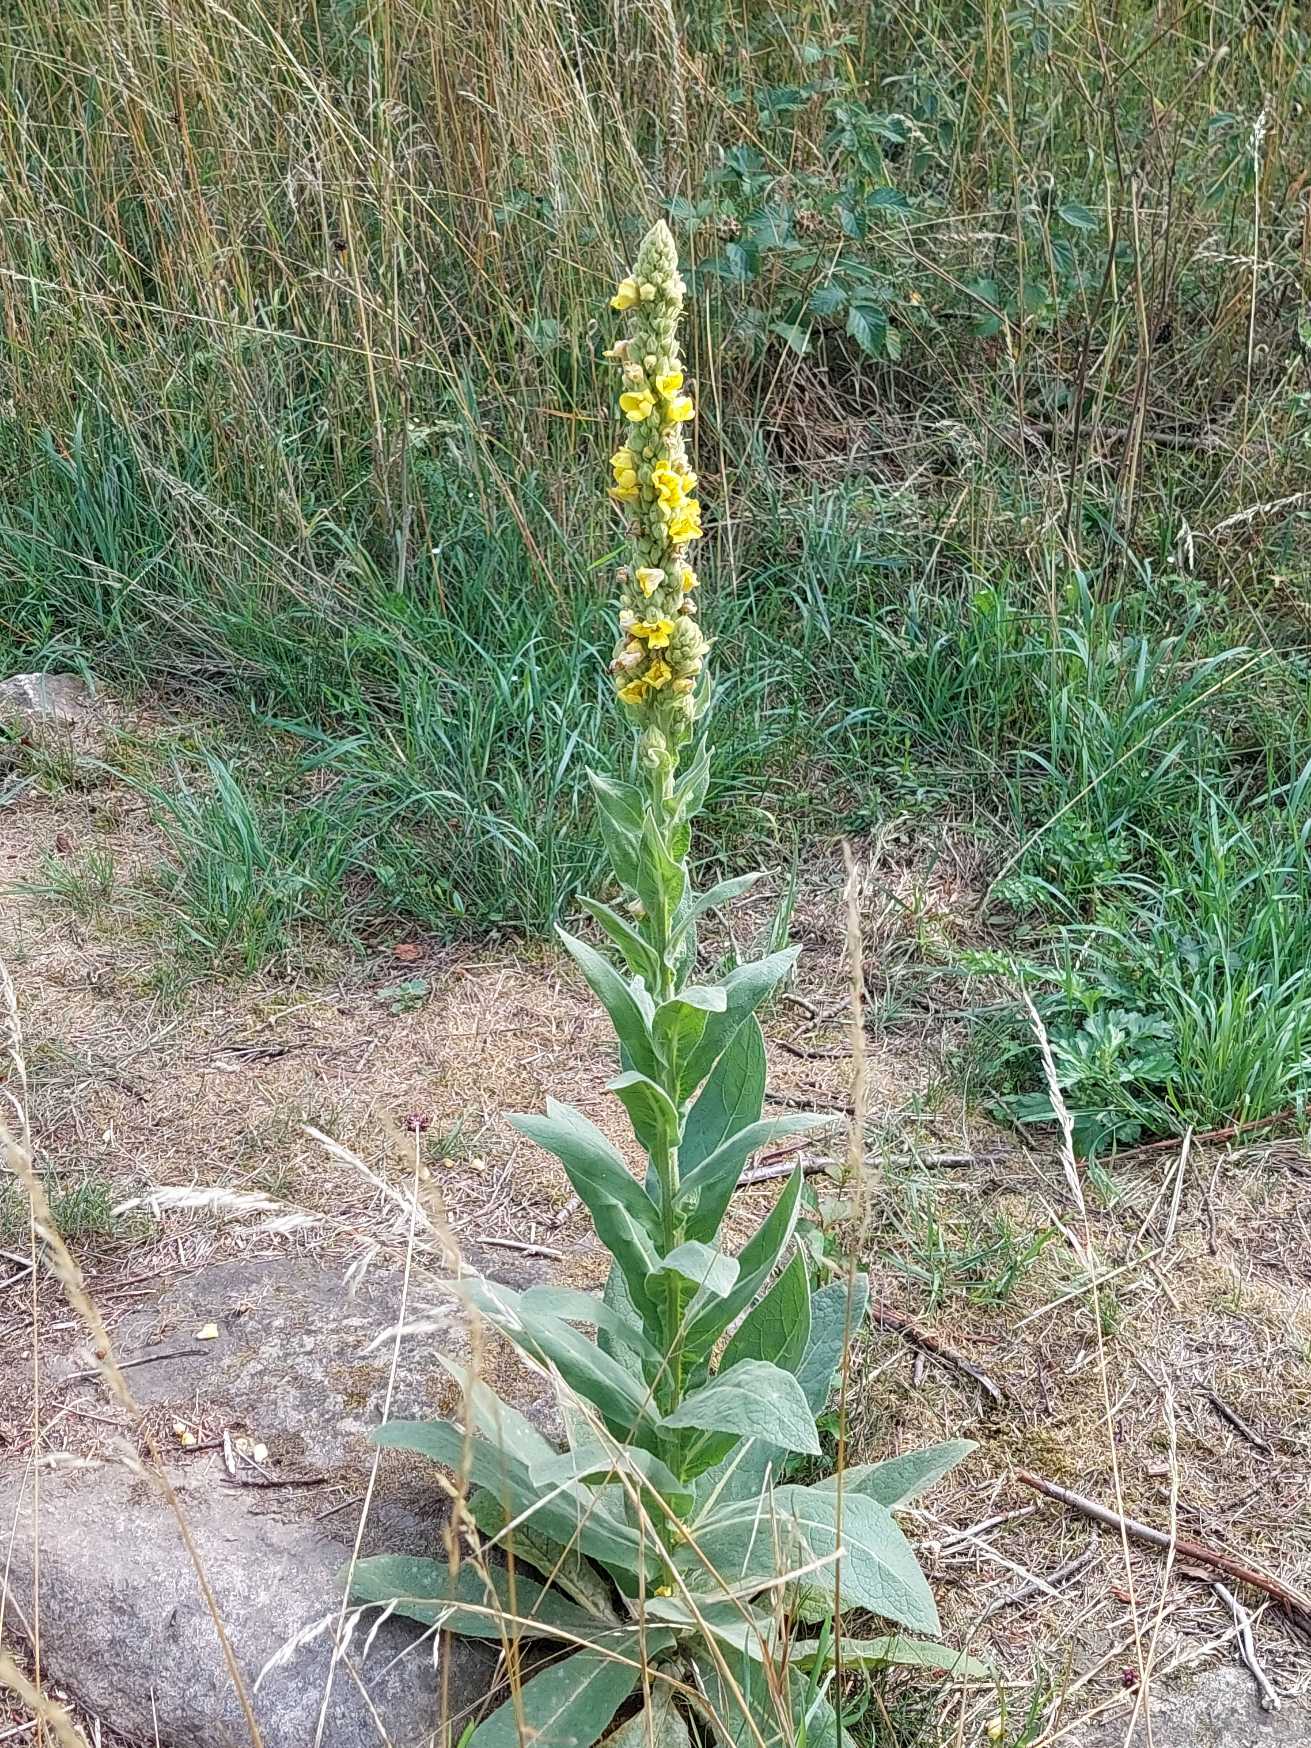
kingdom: Plantae
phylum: Tracheophyta
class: Magnoliopsida
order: Lamiales
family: Scrophulariaceae
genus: Verbascum
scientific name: Verbascum thapsus
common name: Filtbladet kongelys
